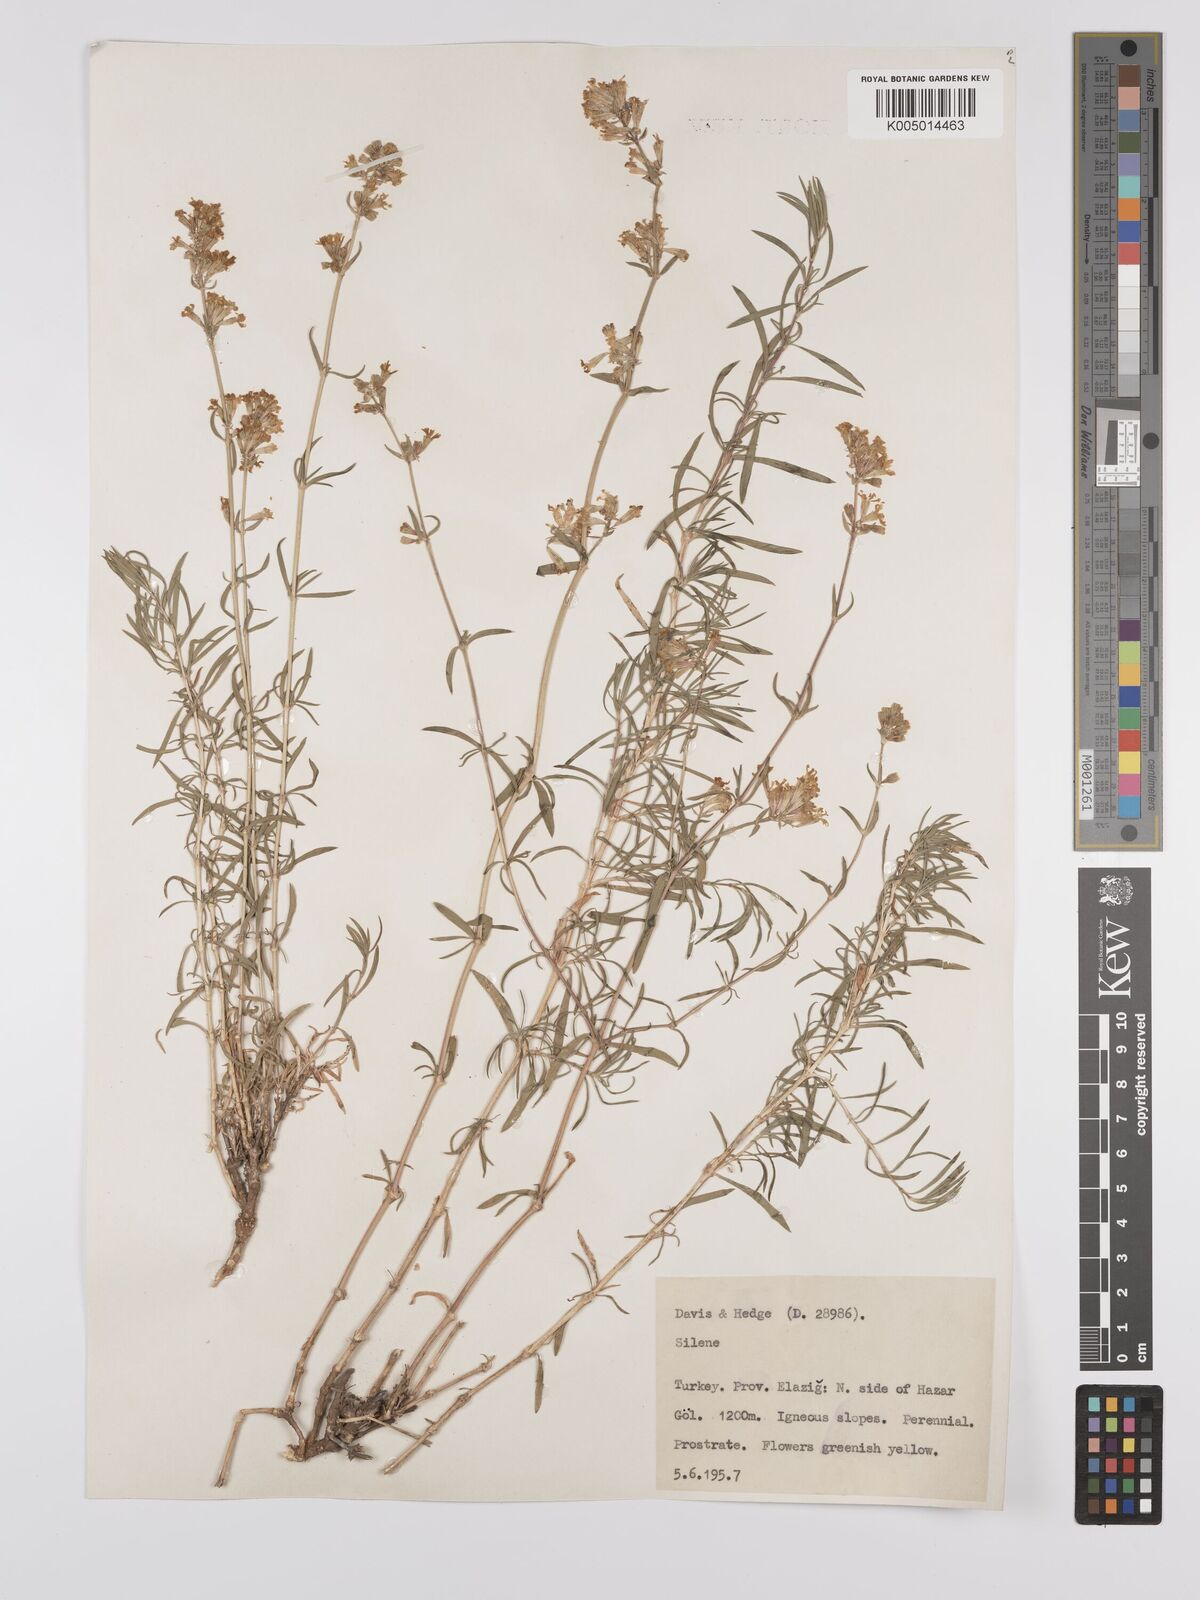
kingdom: Plantae
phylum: Tracheophyta
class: Magnoliopsida
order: Caryophyllales
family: Caryophyllaceae
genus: Silene
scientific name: Silene
